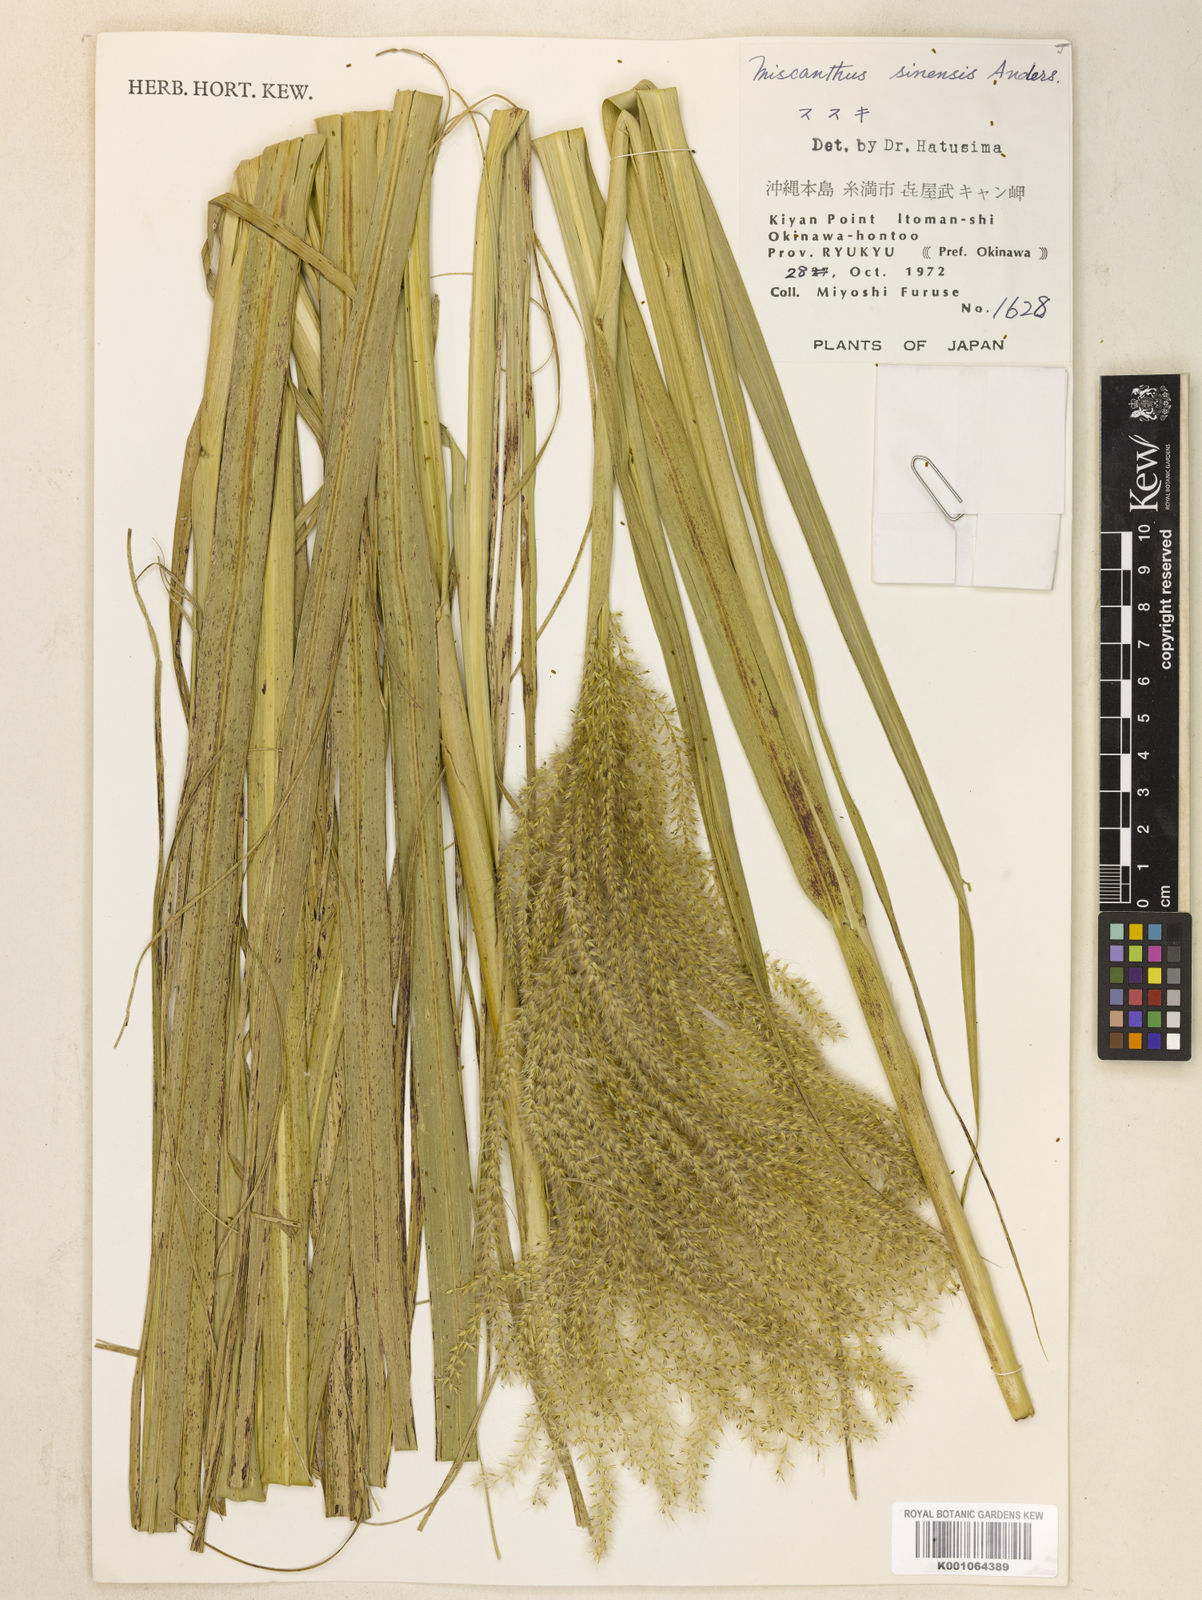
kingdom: Plantae
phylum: Tracheophyta
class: Liliopsida
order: Poales
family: Poaceae
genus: Miscanthus
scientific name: Miscanthus sinensis
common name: Chinese silvergrass
